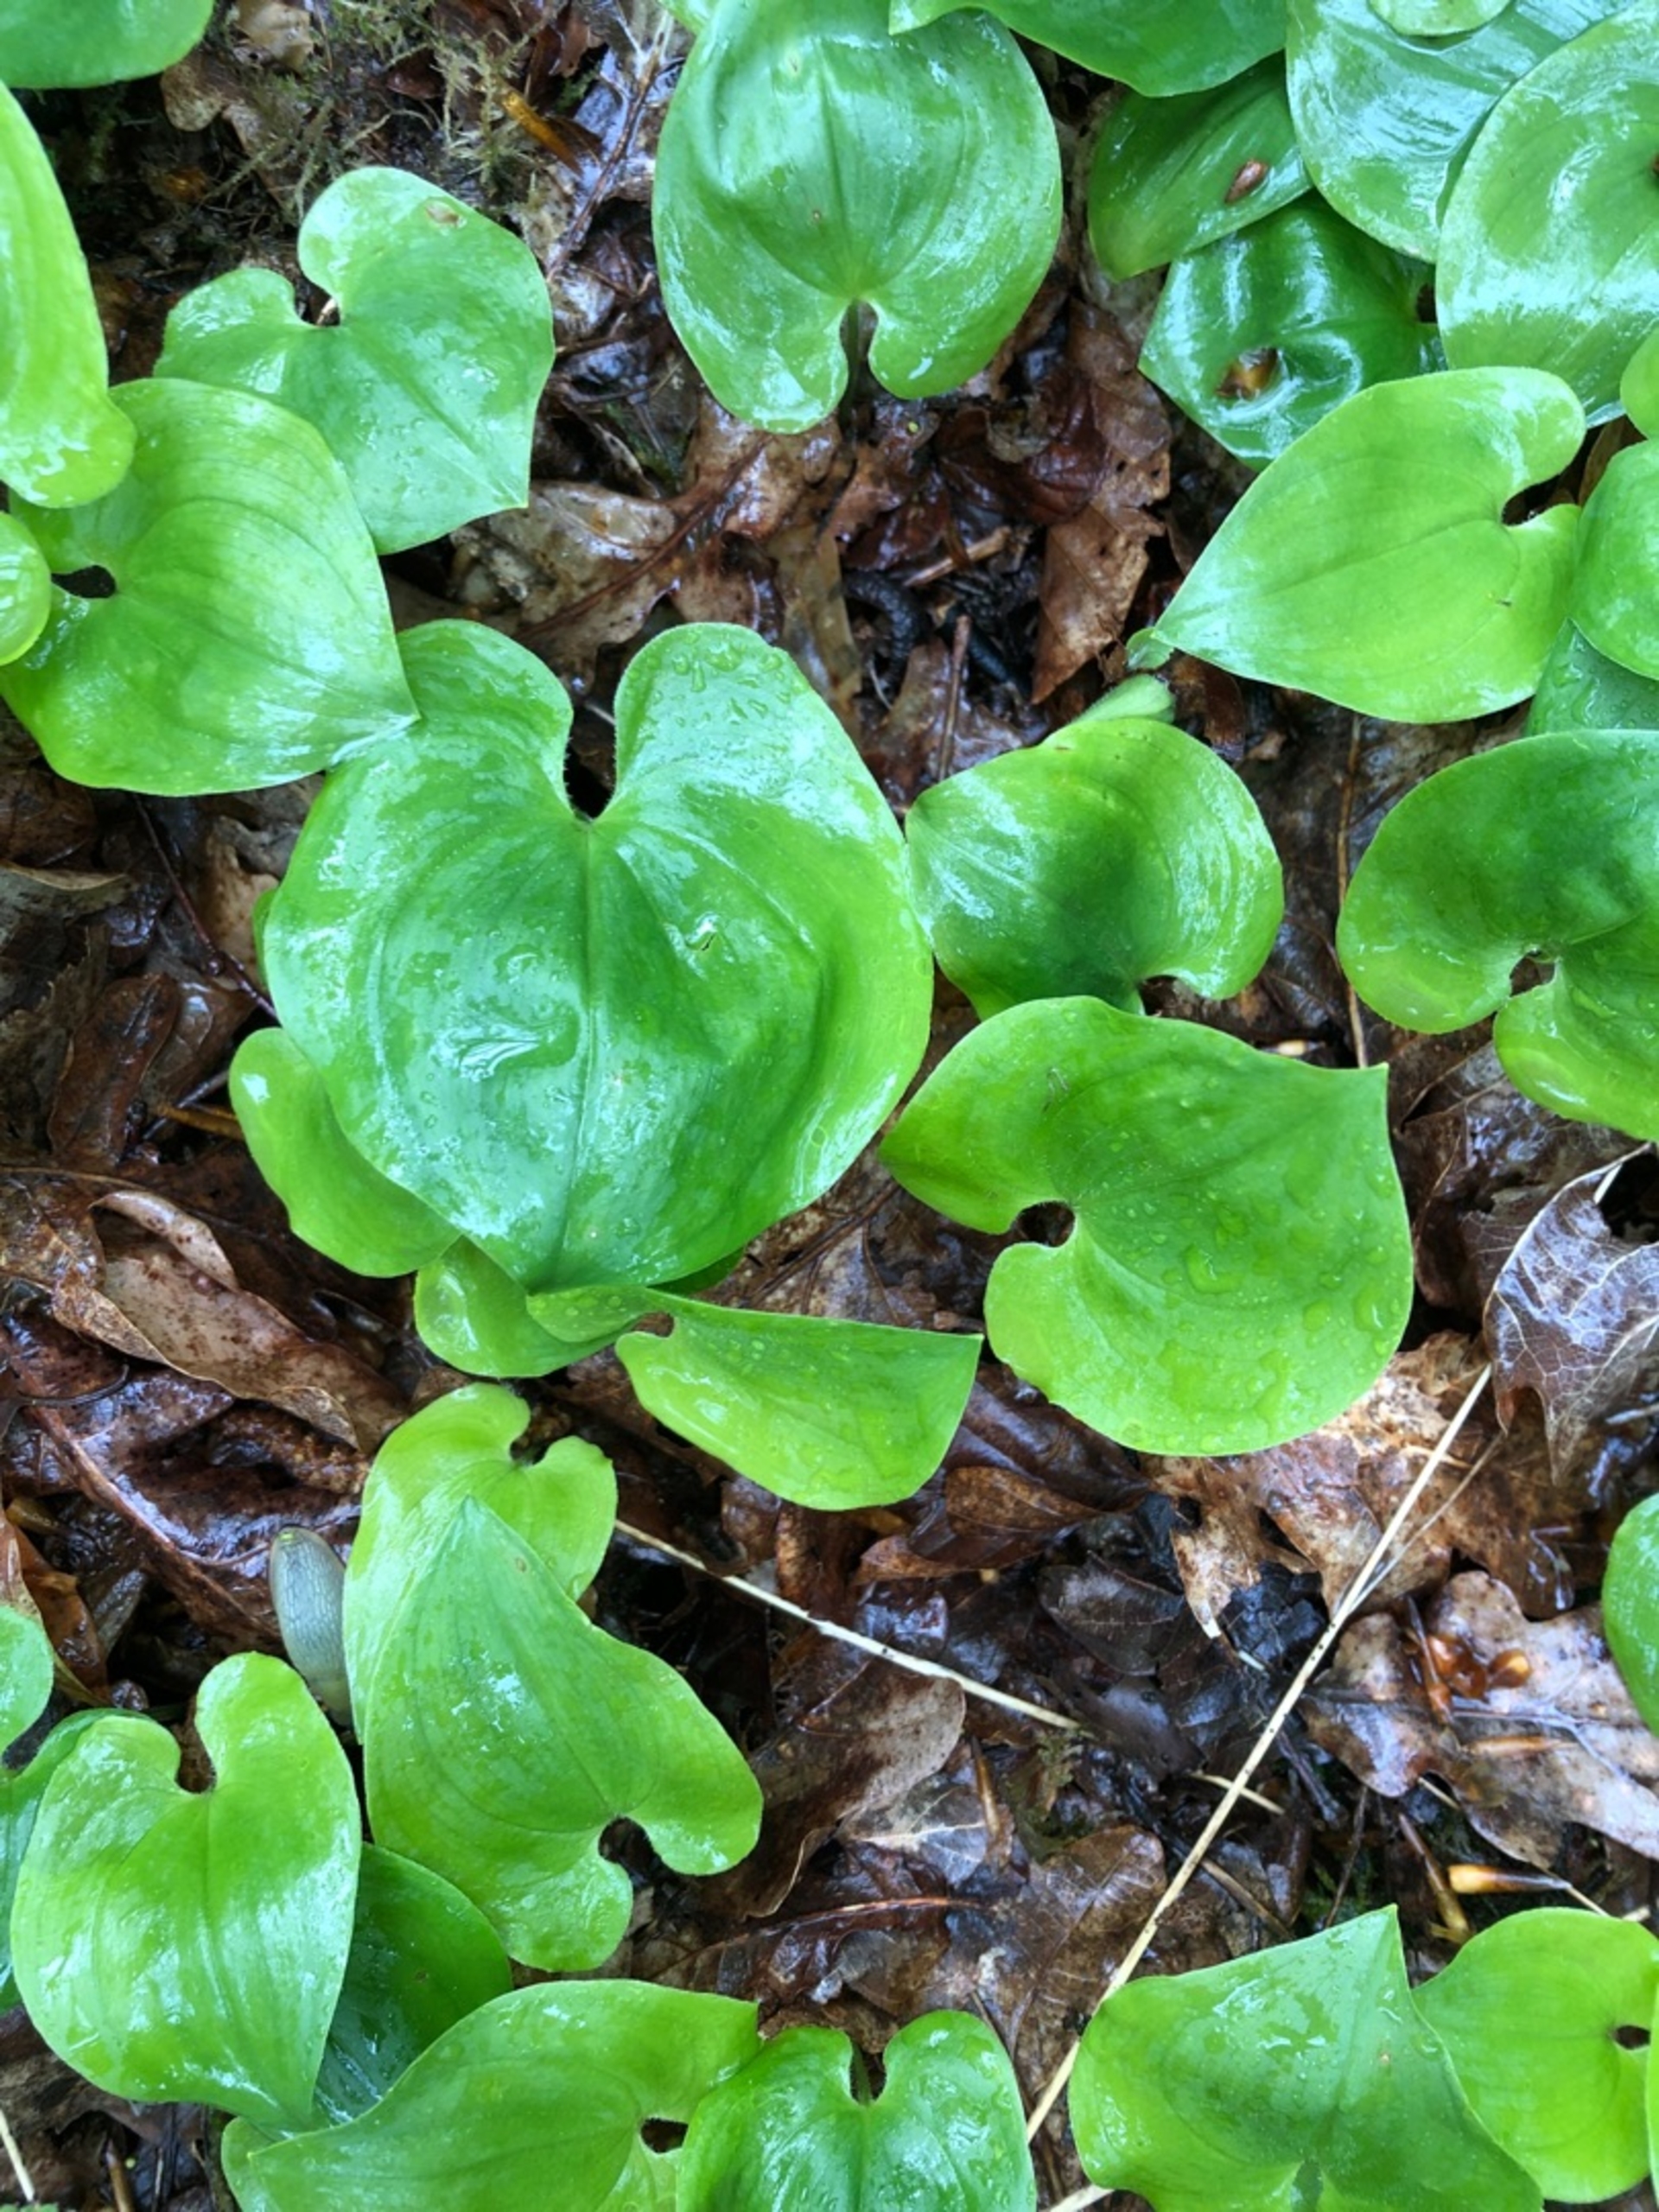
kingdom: Plantae
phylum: Tracheophyta
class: Liliopsida
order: Asparagales
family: Asparagaceae
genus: Maianthemum
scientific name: Maianthemum bifolium
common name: Majblomst
